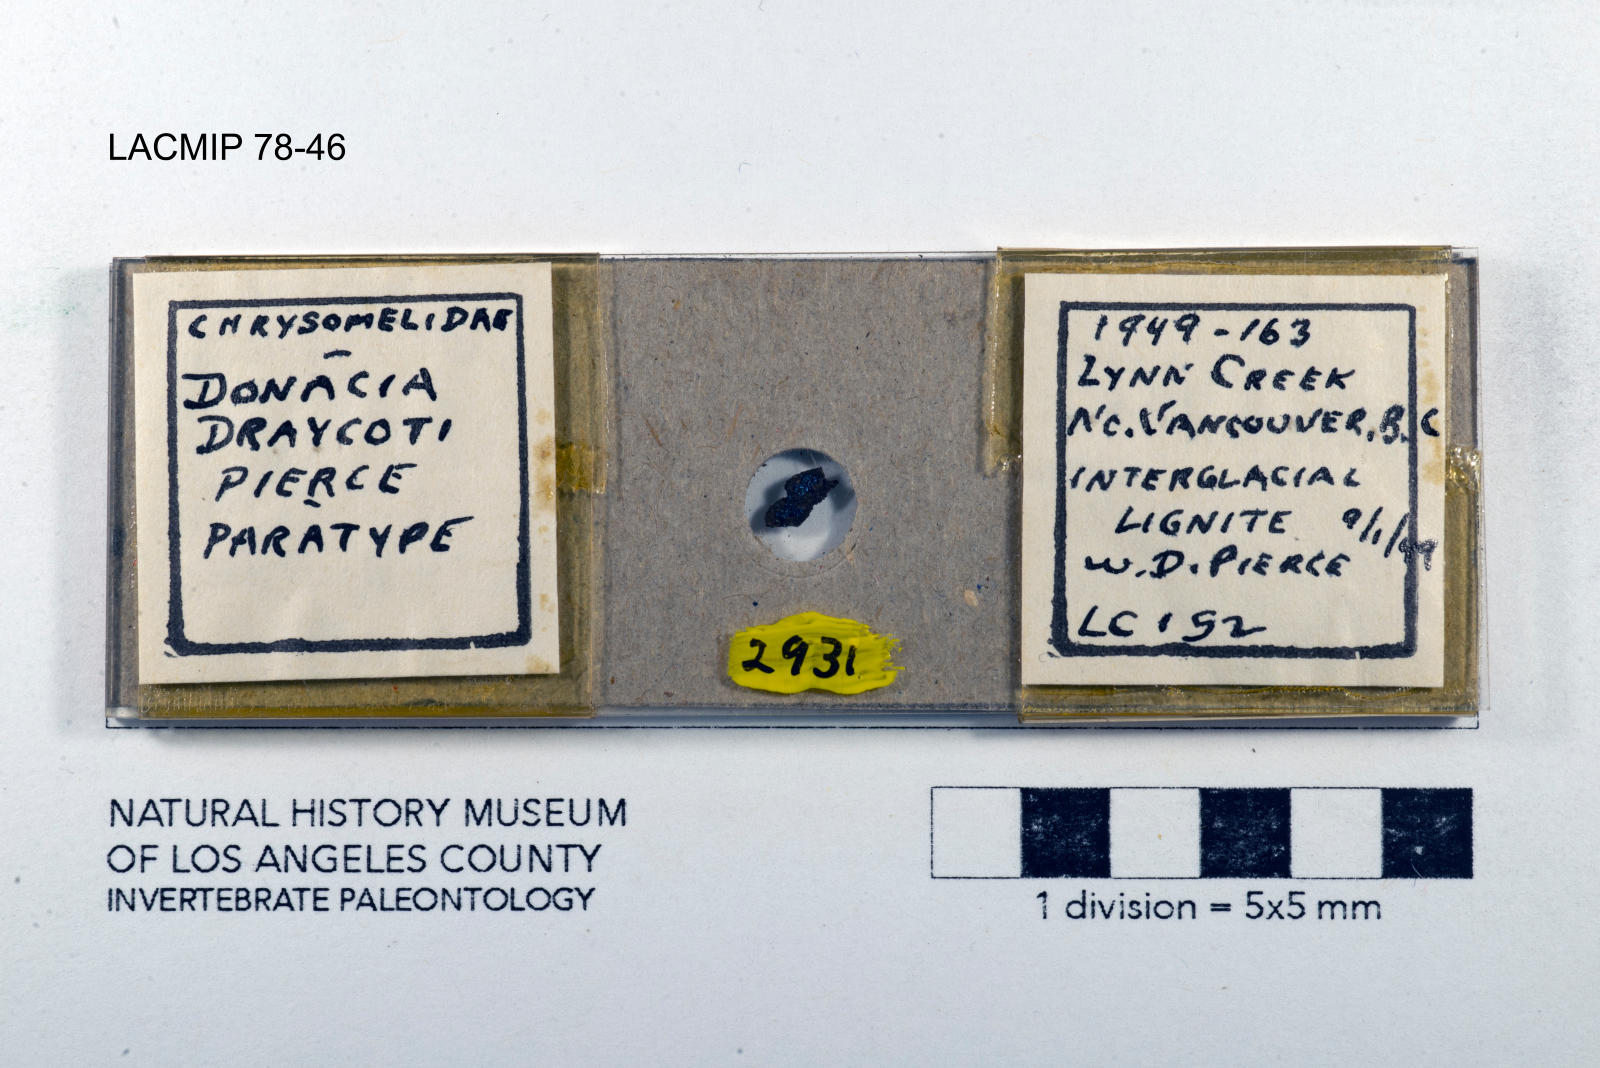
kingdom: Animalia
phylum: Arthropoda
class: Insecta
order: Coleoptera
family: Chrysomelidae
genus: Donacia
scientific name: Donacia draycoti
